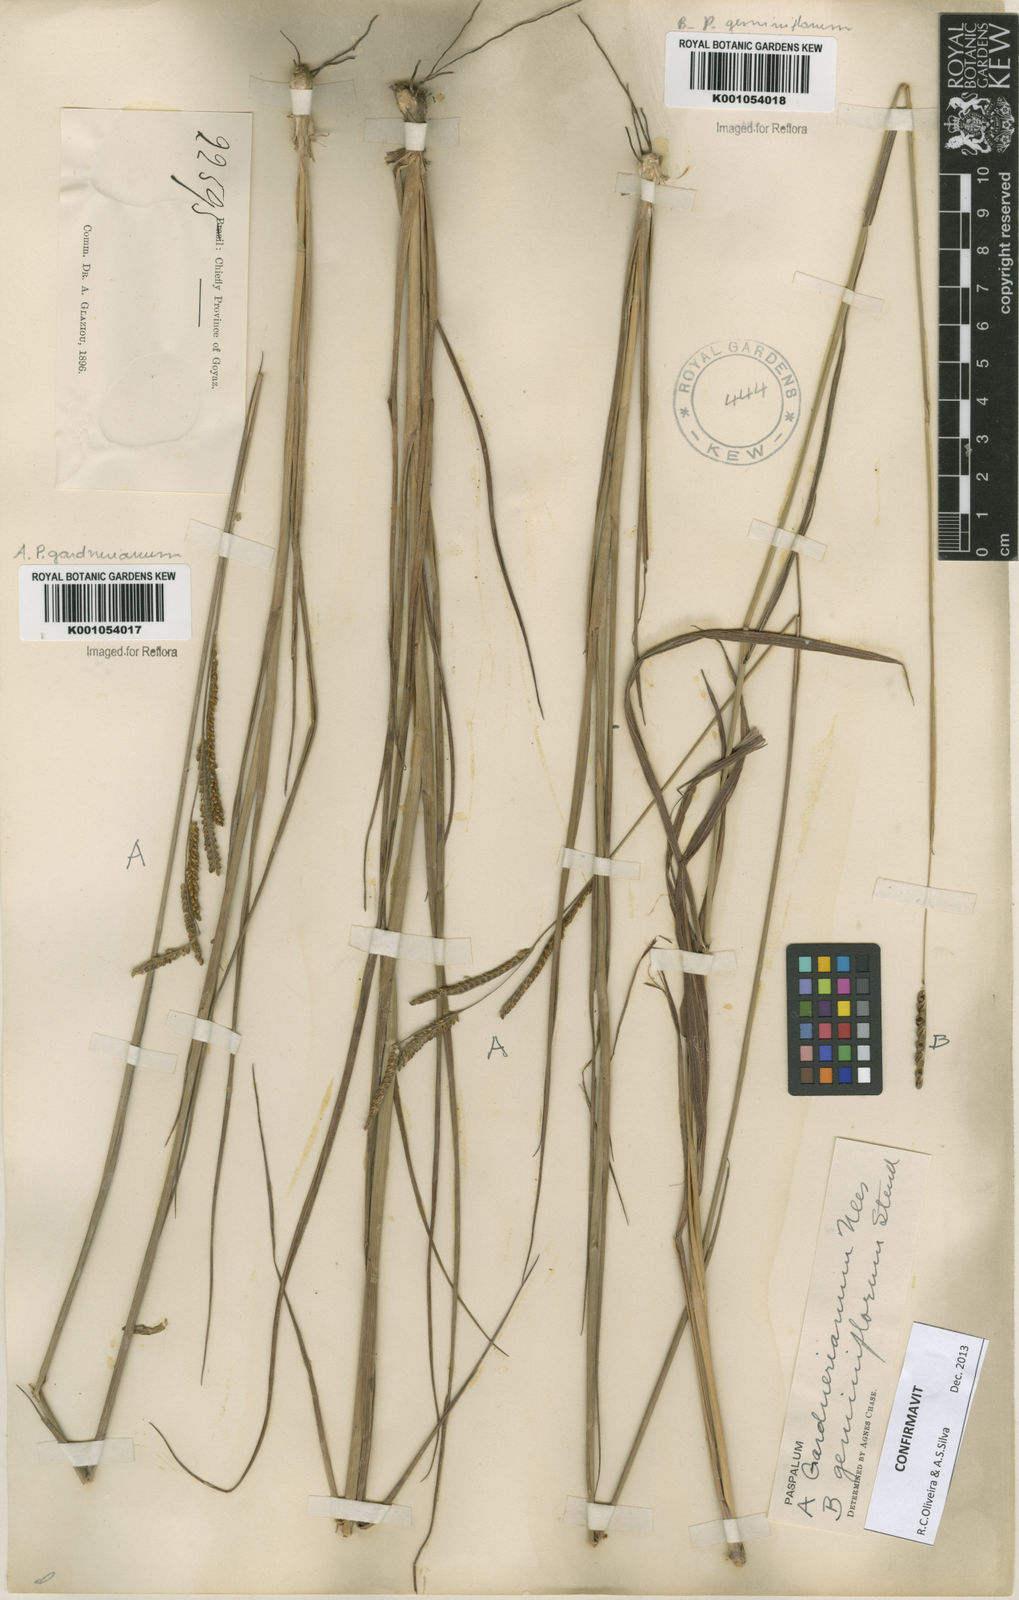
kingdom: Plantae
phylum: Tracheophyta
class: Liliopsida
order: Poales
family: Poaceae
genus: Paspalum
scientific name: Paspalum gardnerianum
